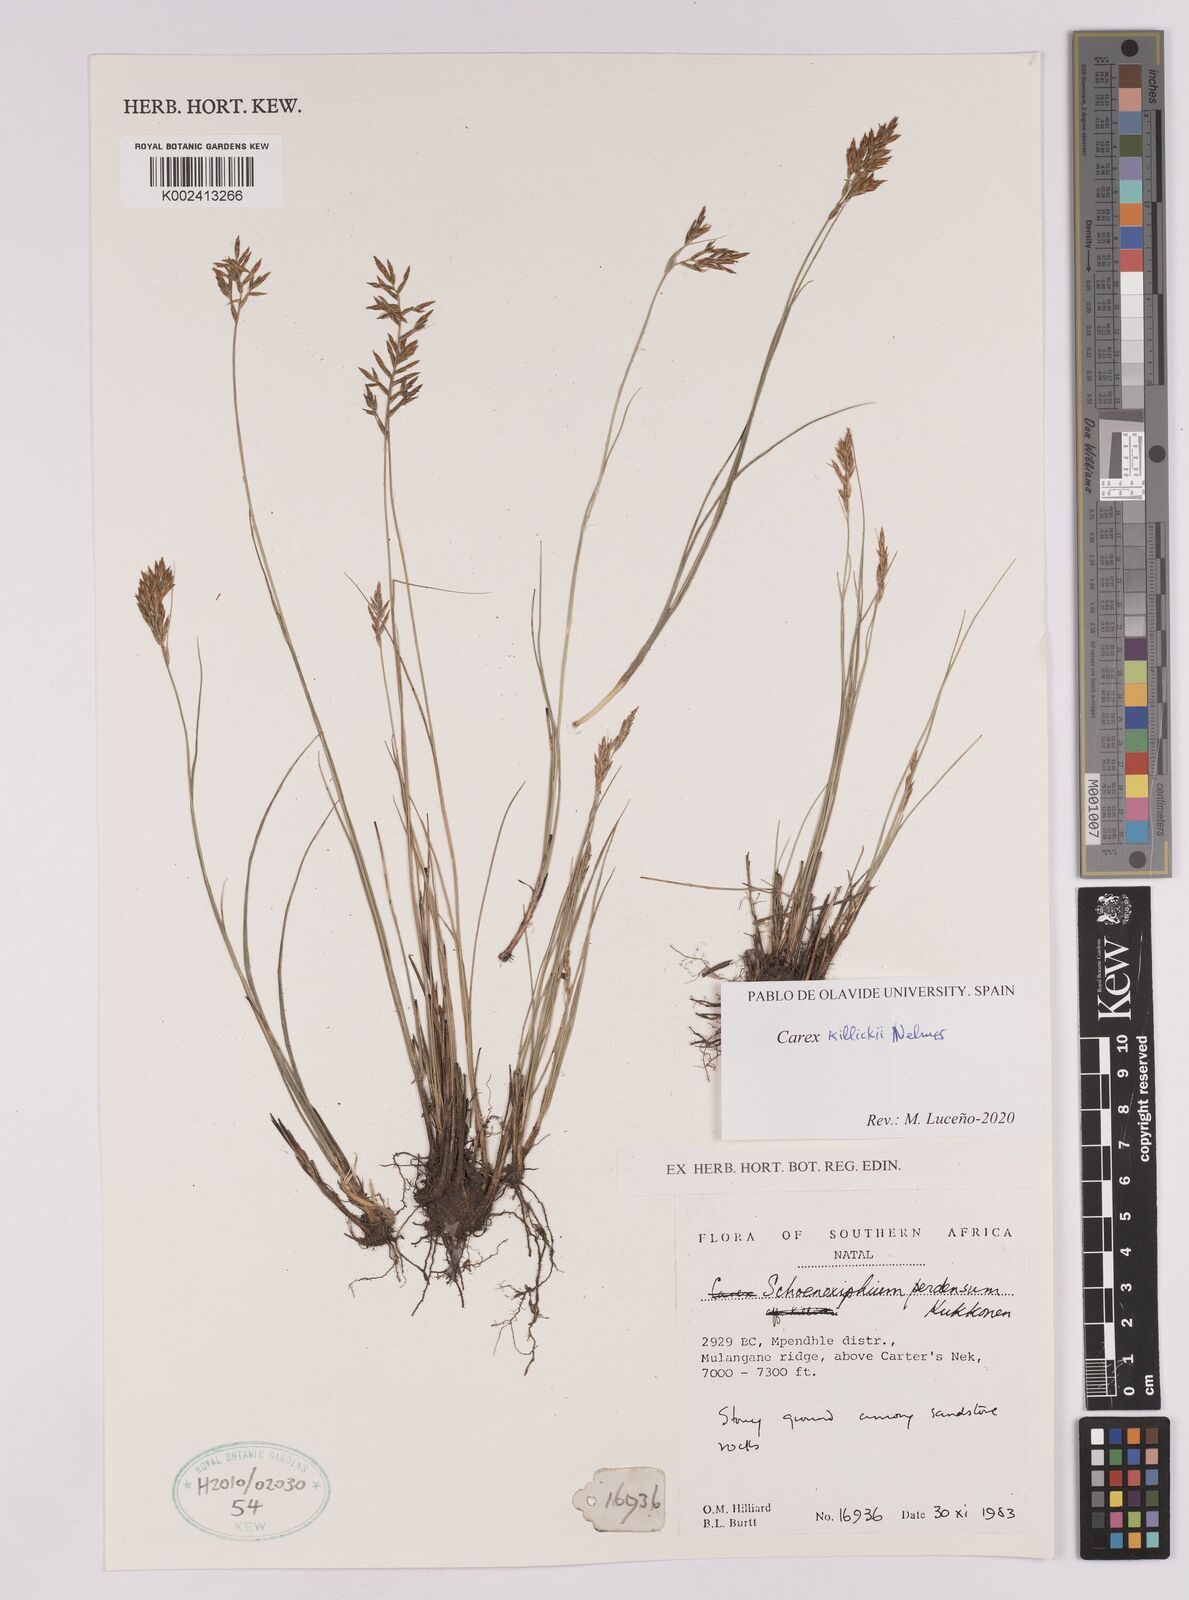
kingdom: Plantae
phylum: Tracheophyta
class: Liliopsida
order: Poales
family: Cyperaceae
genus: Carex
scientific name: Carex
